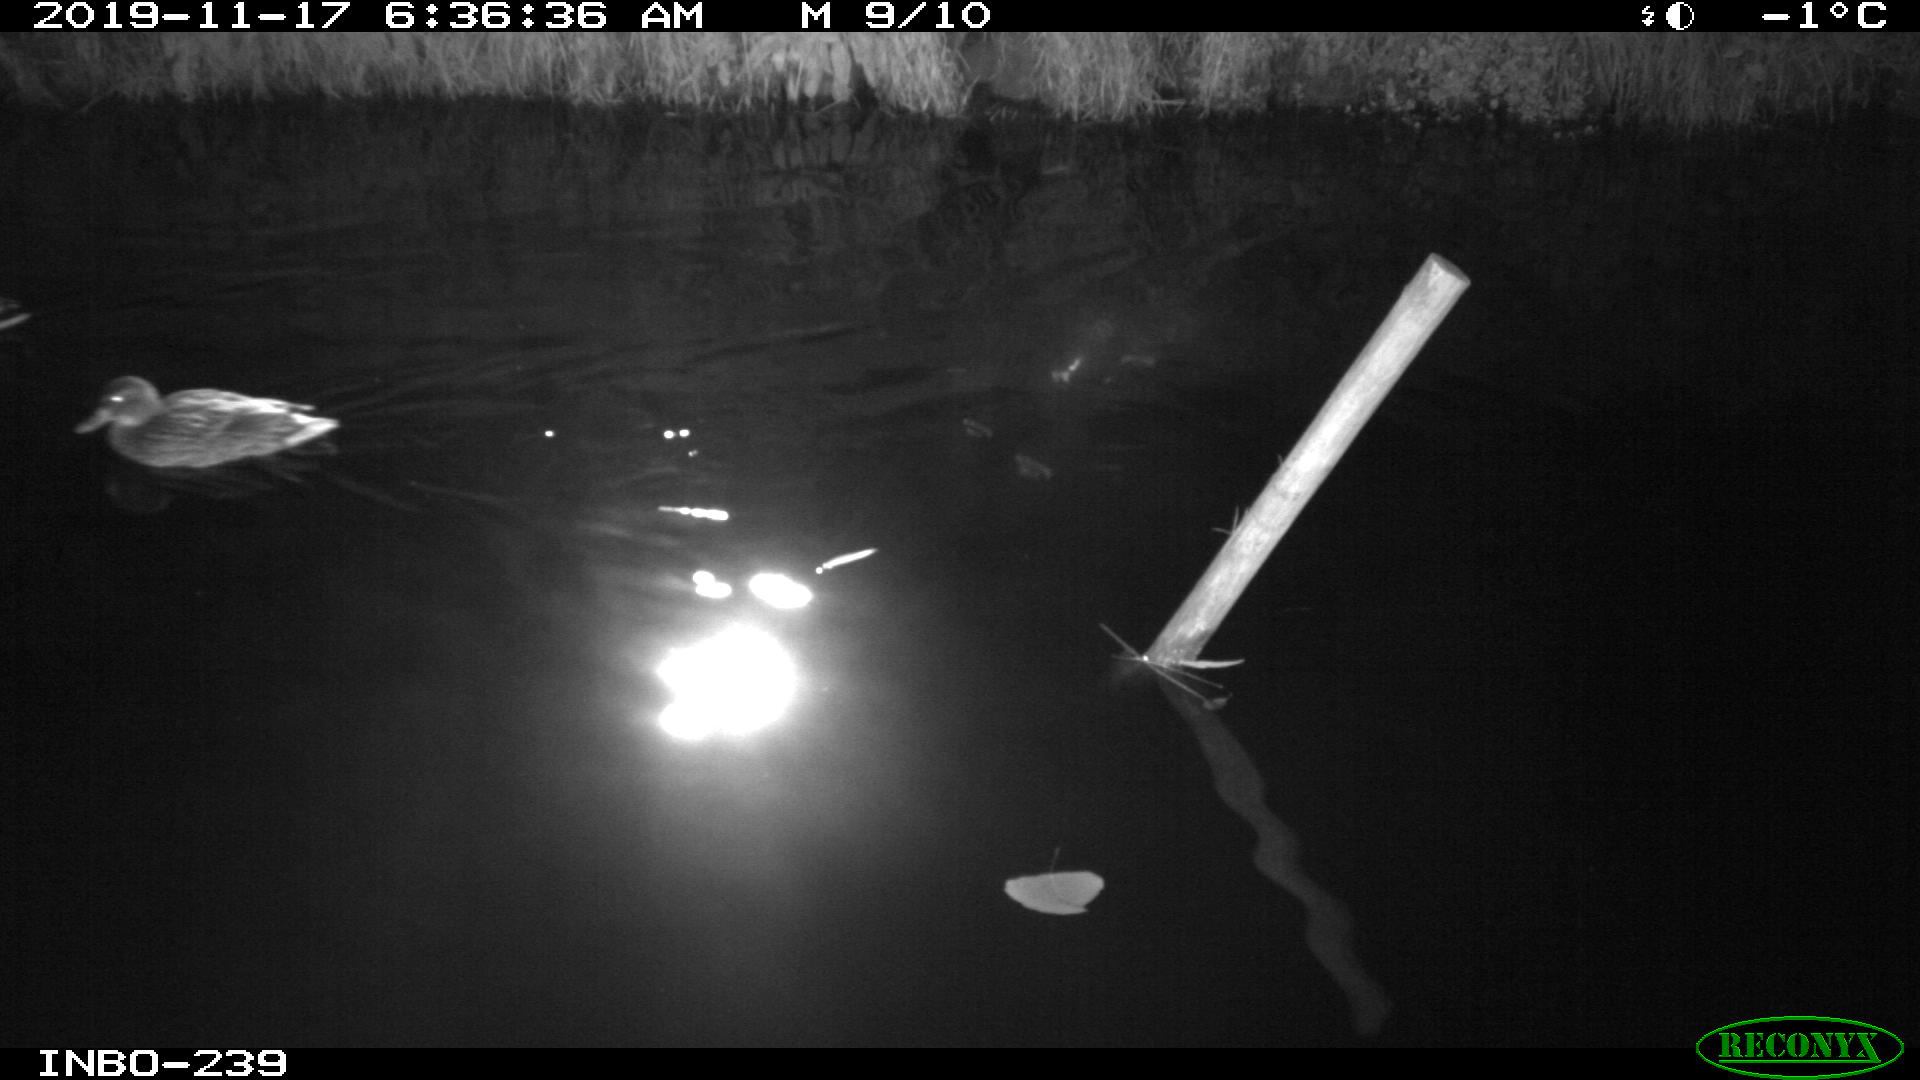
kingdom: Animalia
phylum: Chordata
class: Aves
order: Anseriformes
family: Anatidae
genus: Anas
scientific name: Anas platyrhynchos
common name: Mallard
